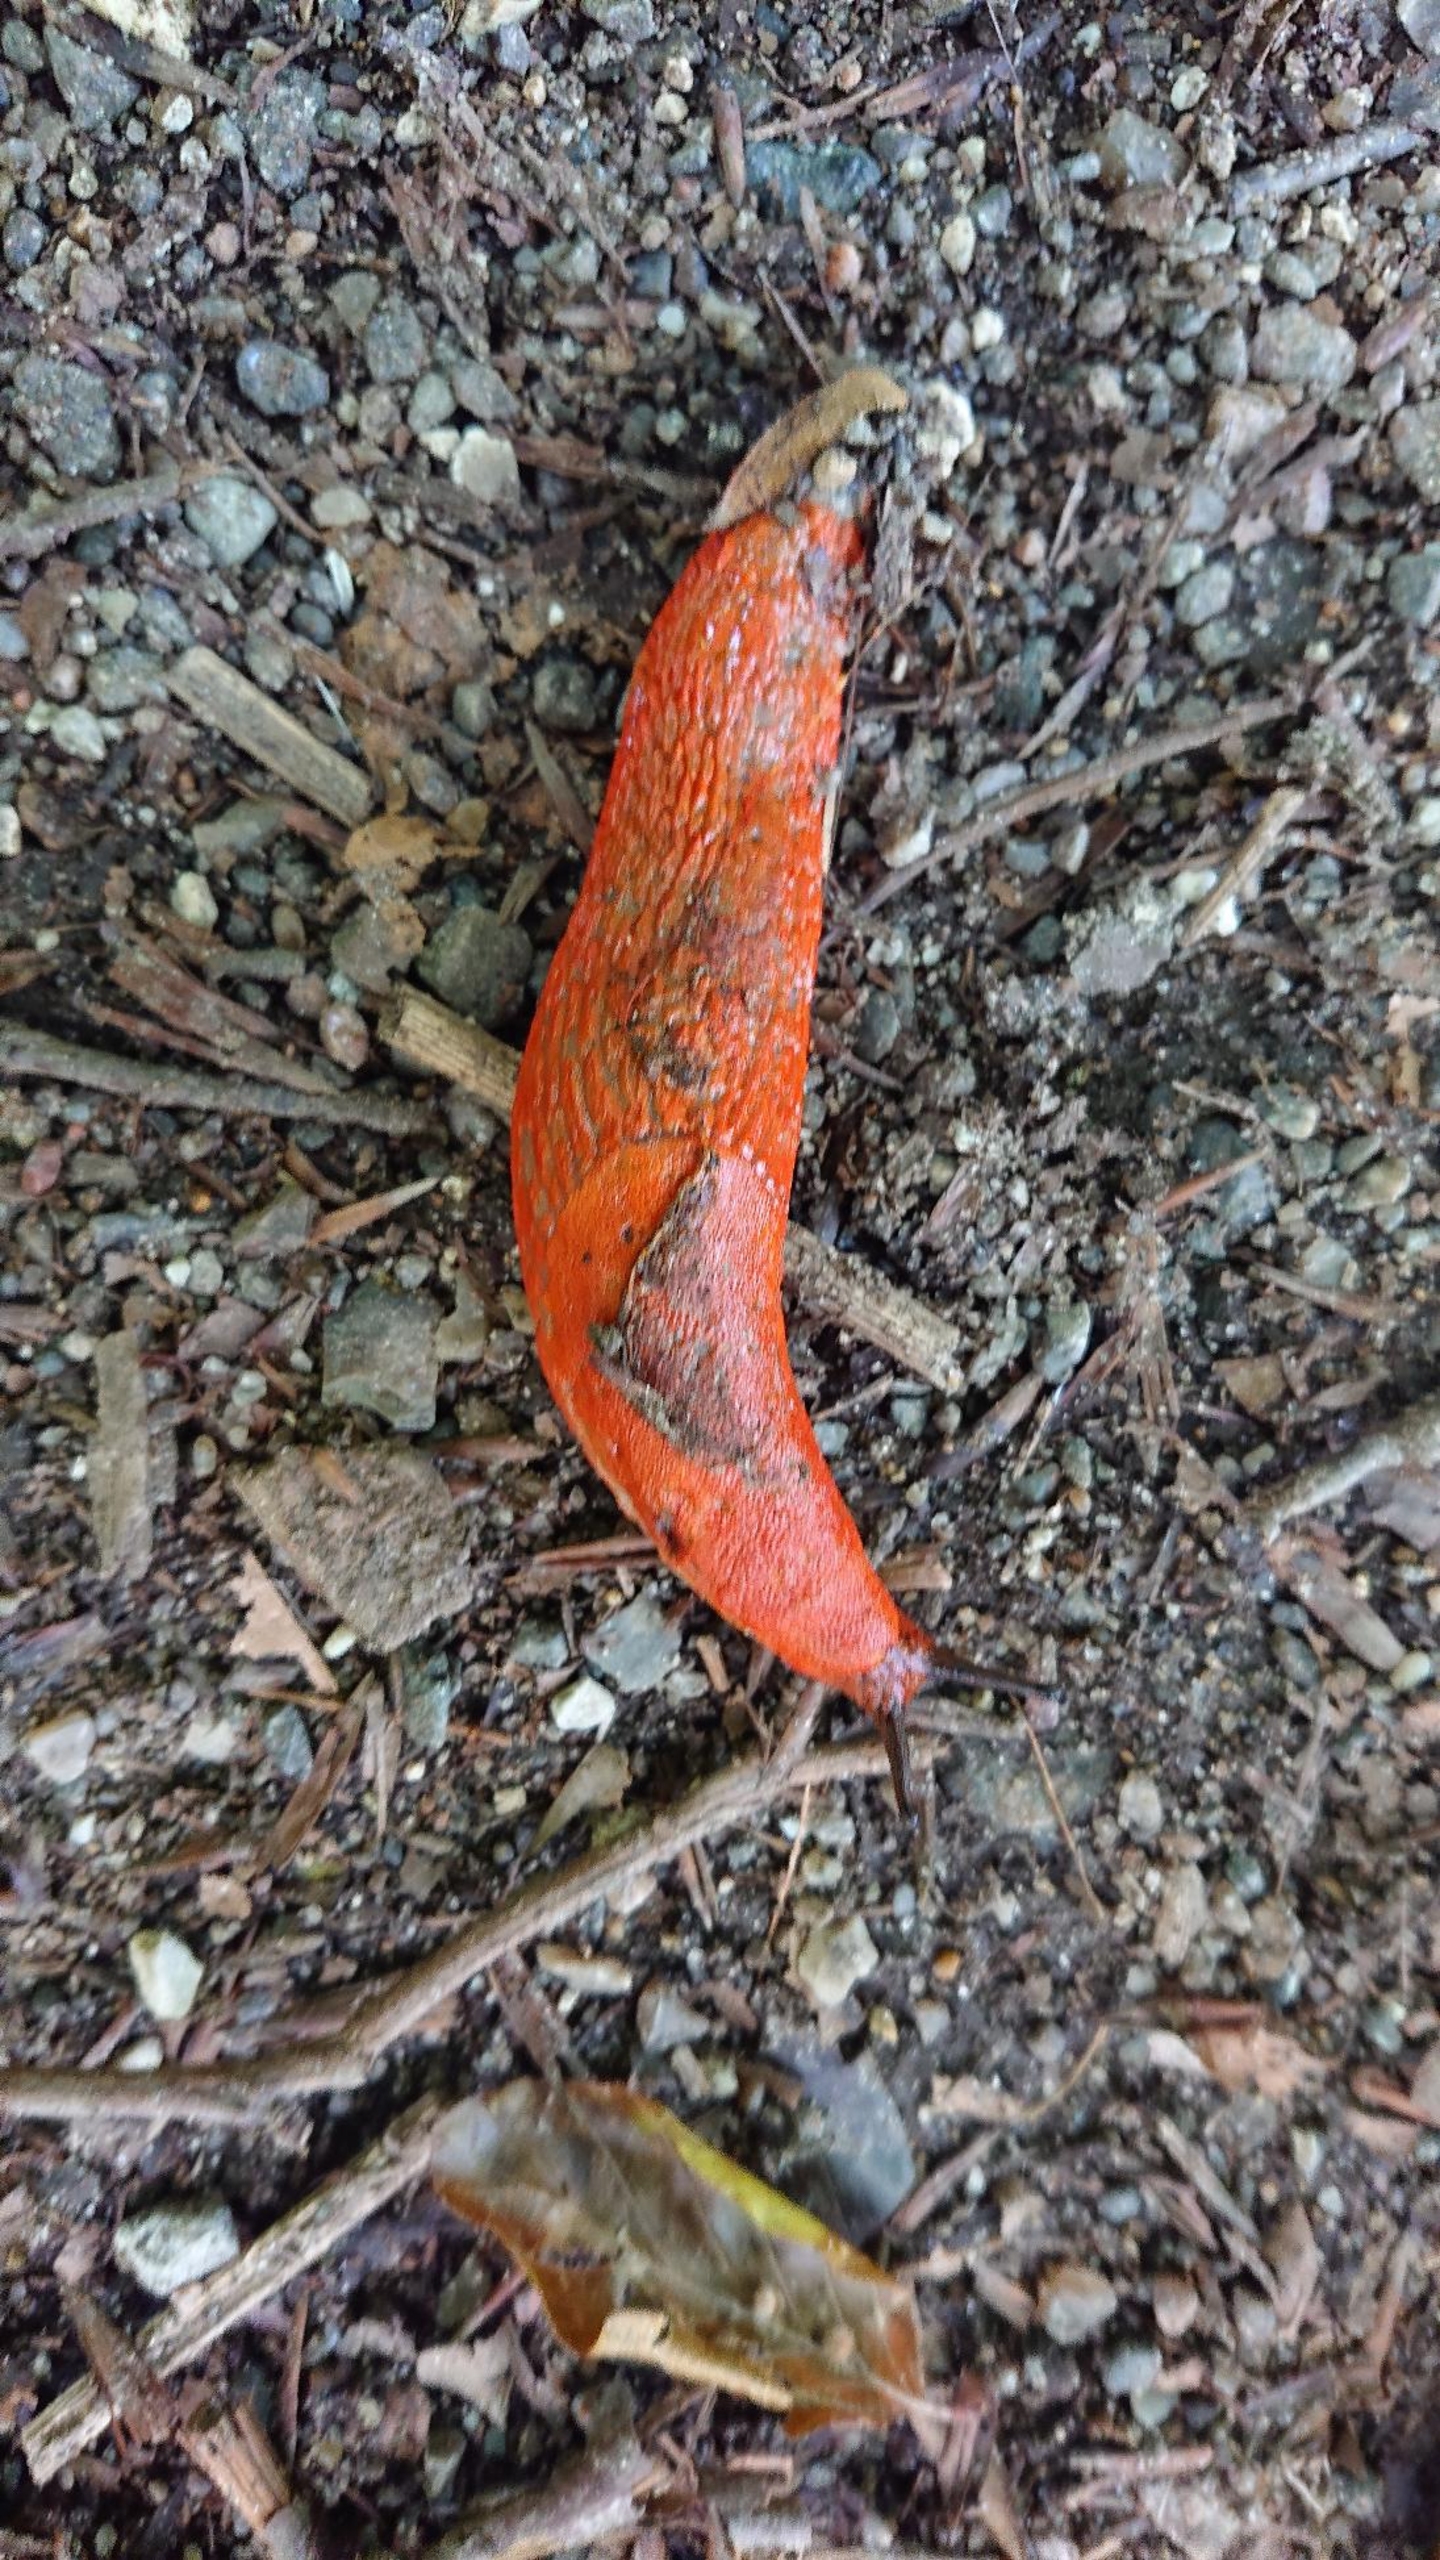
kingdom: Animalia
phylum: Mollusca
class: Gastropoda
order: Stylommatophora
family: Arionidae
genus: Arion
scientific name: Arion rufus
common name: Rød skovsnegl
